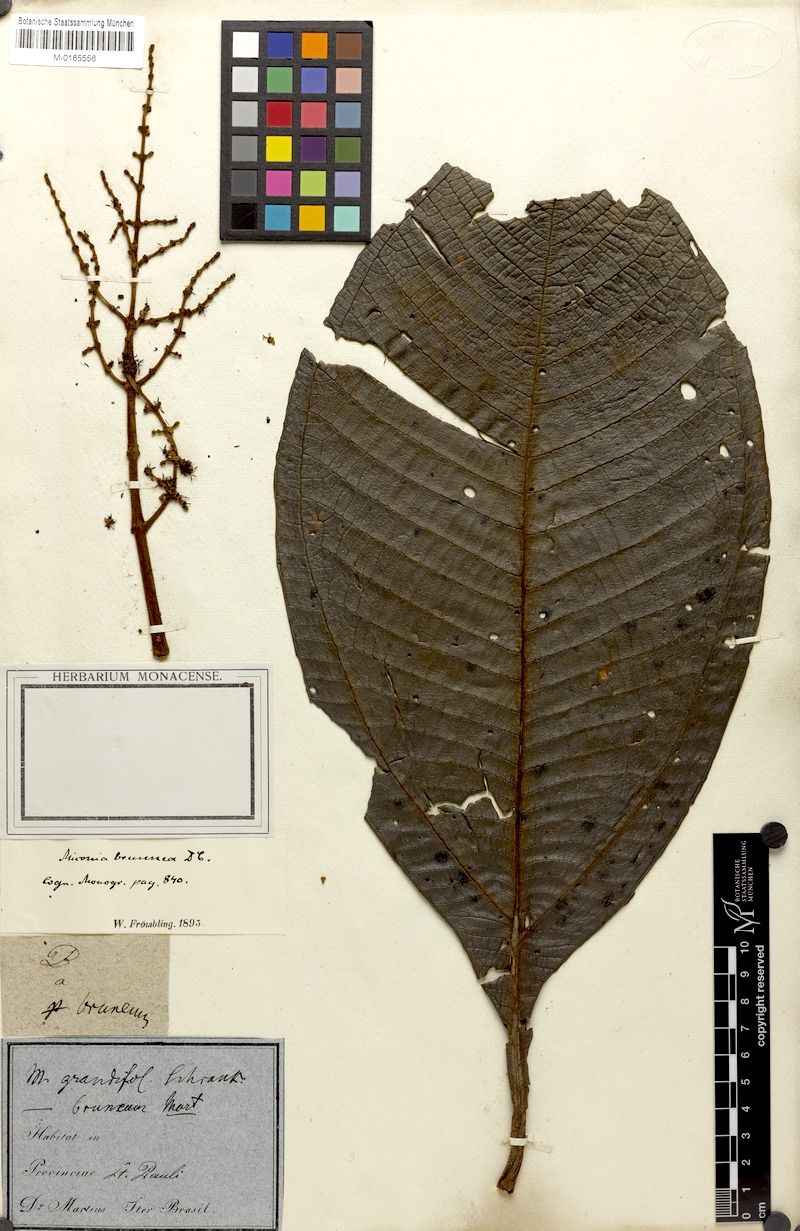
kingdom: Plantae
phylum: Tracheophyta
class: Magnoliopsida
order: Myrtales
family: Melastomataceae
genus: Miconia
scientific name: Miconia brunnea
